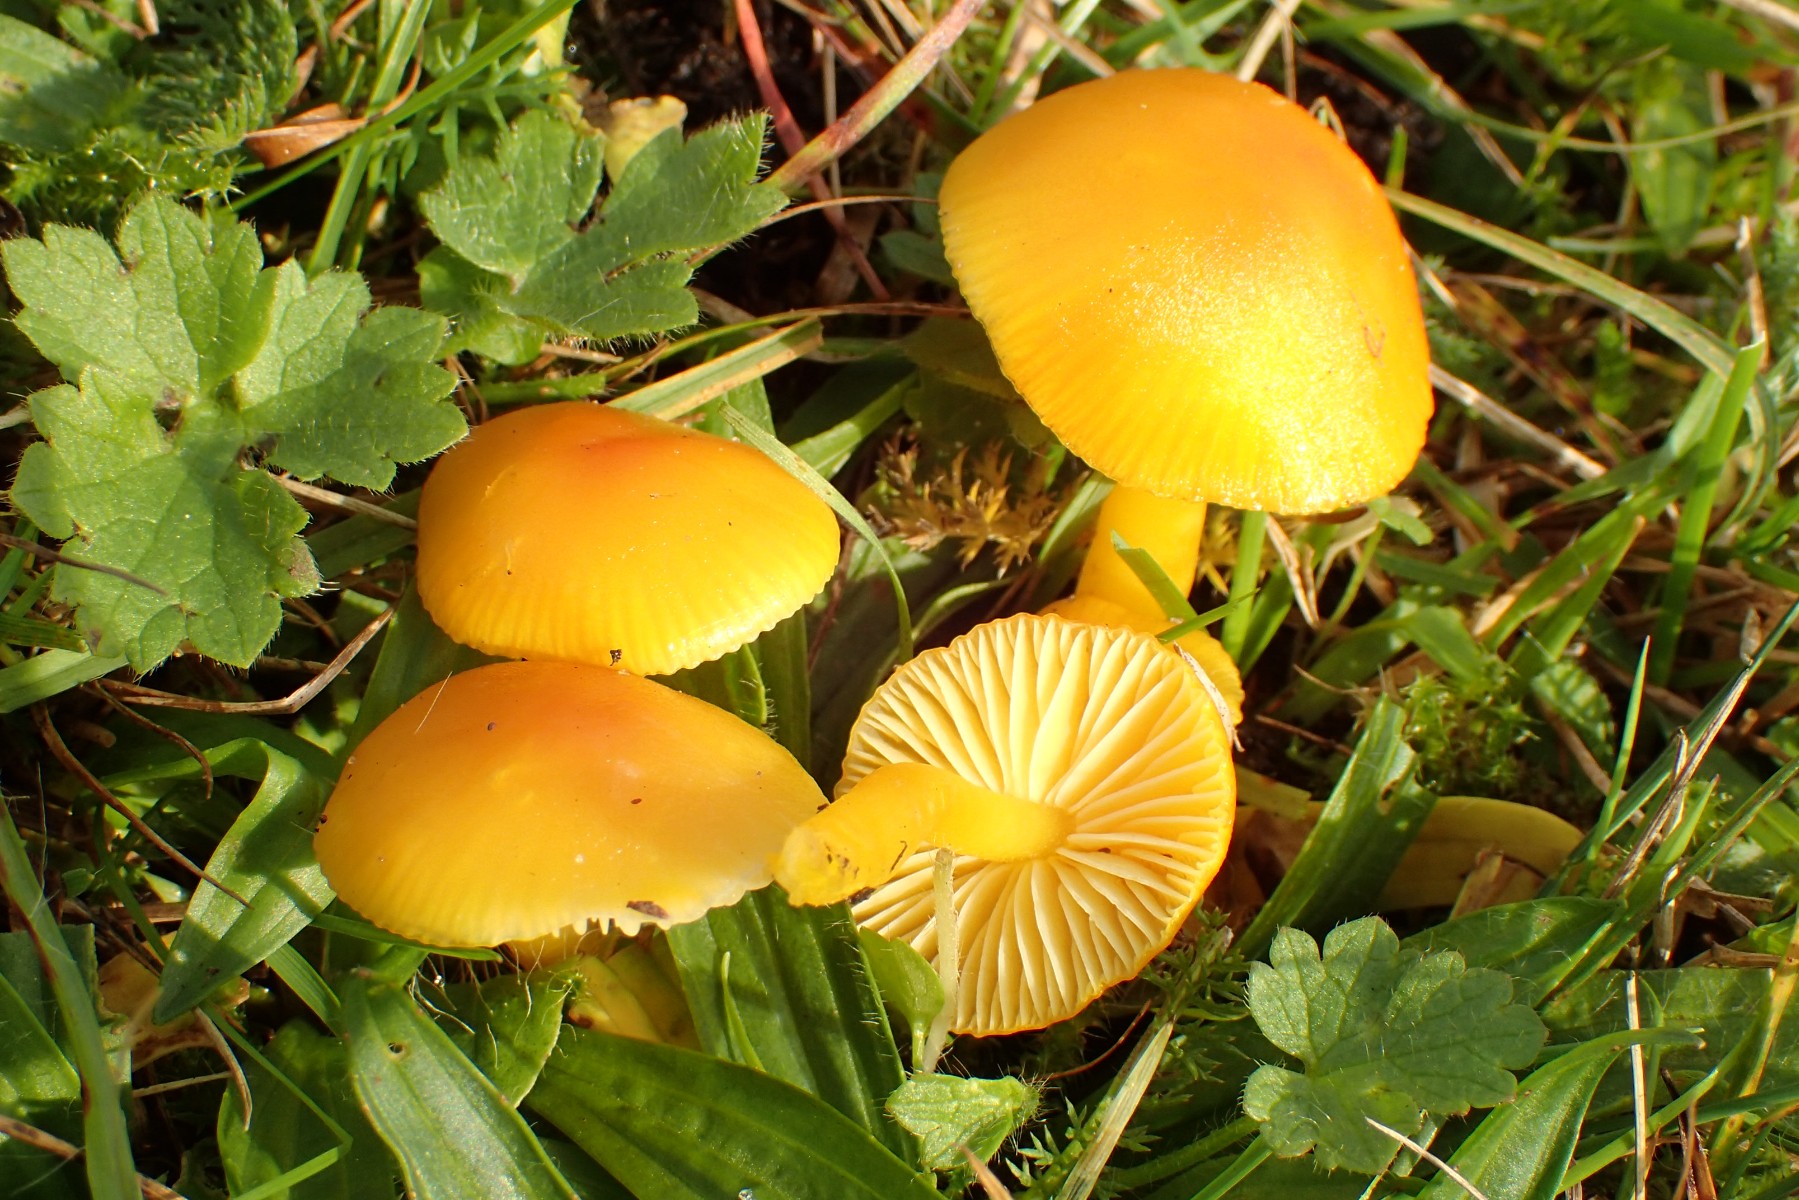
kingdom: Fungi
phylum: Basidiomycota
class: Agaricomycetes
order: Agaricales
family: Hygrophoraceae
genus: Hygrocybe
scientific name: Hygrocybe ceracea
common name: voksgul vokshat
